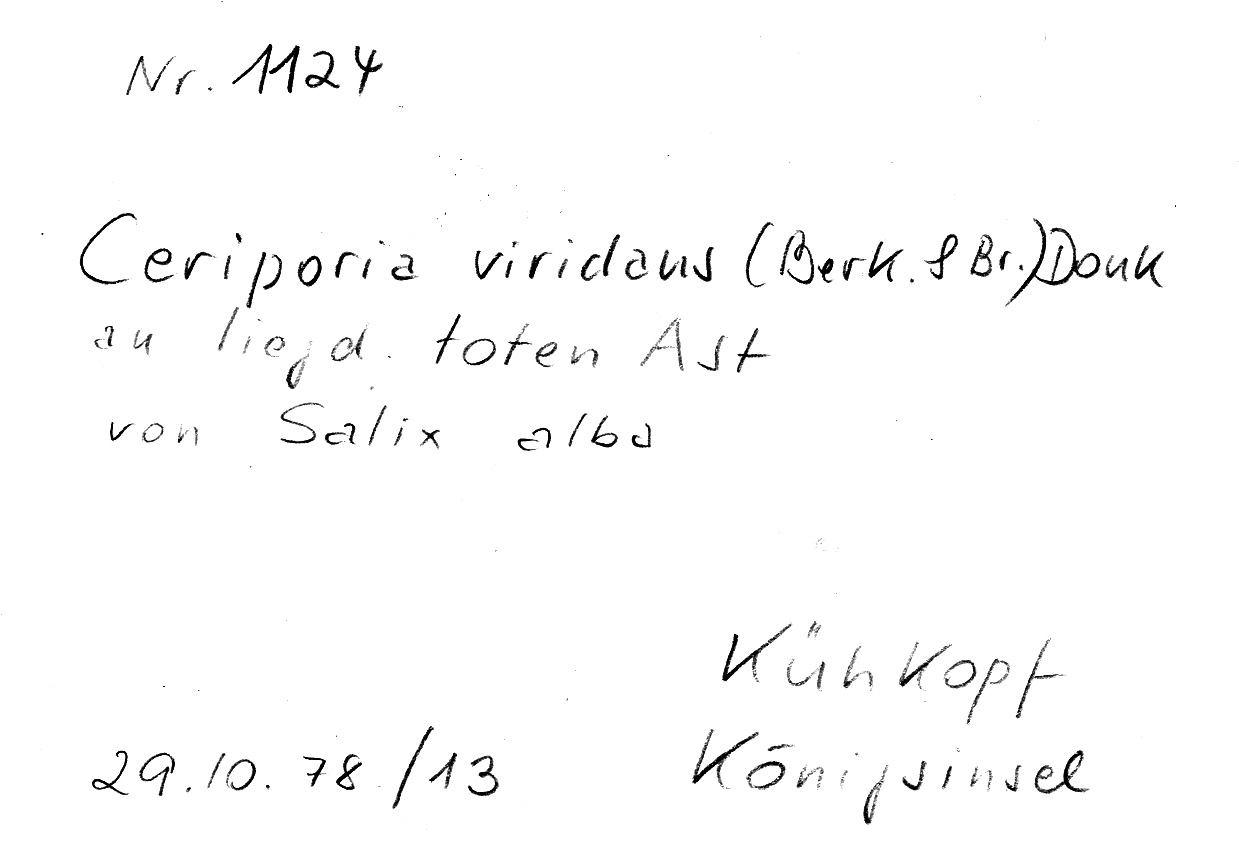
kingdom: Plantae
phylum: Tracheophyta
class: Magnoliopsida
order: Malpighiales
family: Salicaceae
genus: Salix
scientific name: Salix alba
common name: White willow
